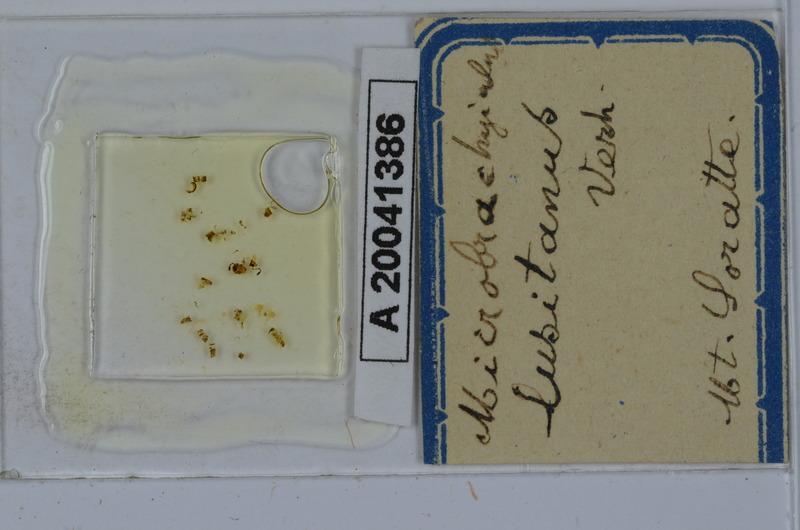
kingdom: Animalia
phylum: Arthropoda
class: Diplopoda
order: Julida
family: Julidae
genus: Brachyiulus
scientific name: Brachyiulus lusitanus
